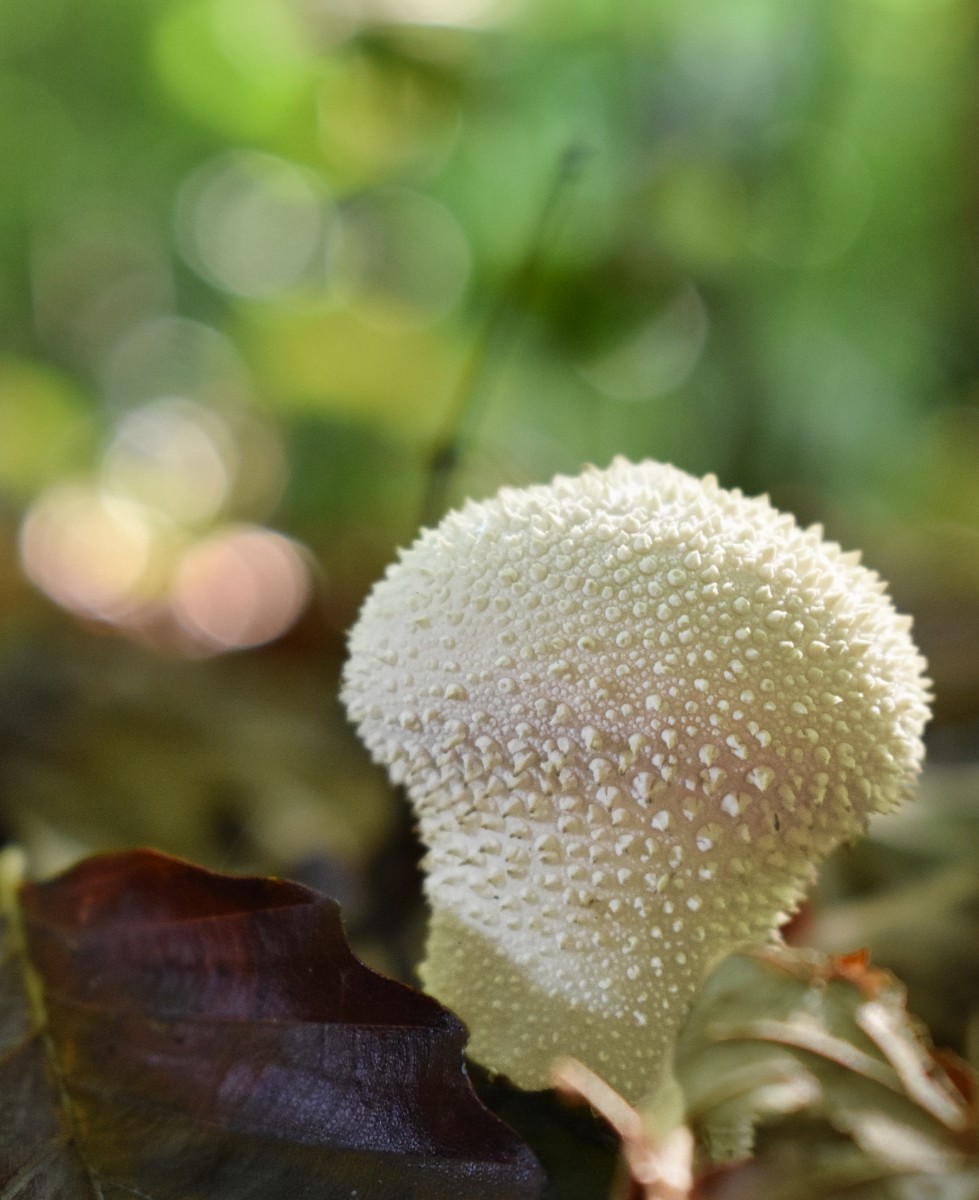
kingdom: Fungi
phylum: Basidiomycota
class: Agaricomycetes
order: Agaricales
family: Lycoperdaceae
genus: Lycoperdon
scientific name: Lycoperdon perlatum
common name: krystal-støvbold
